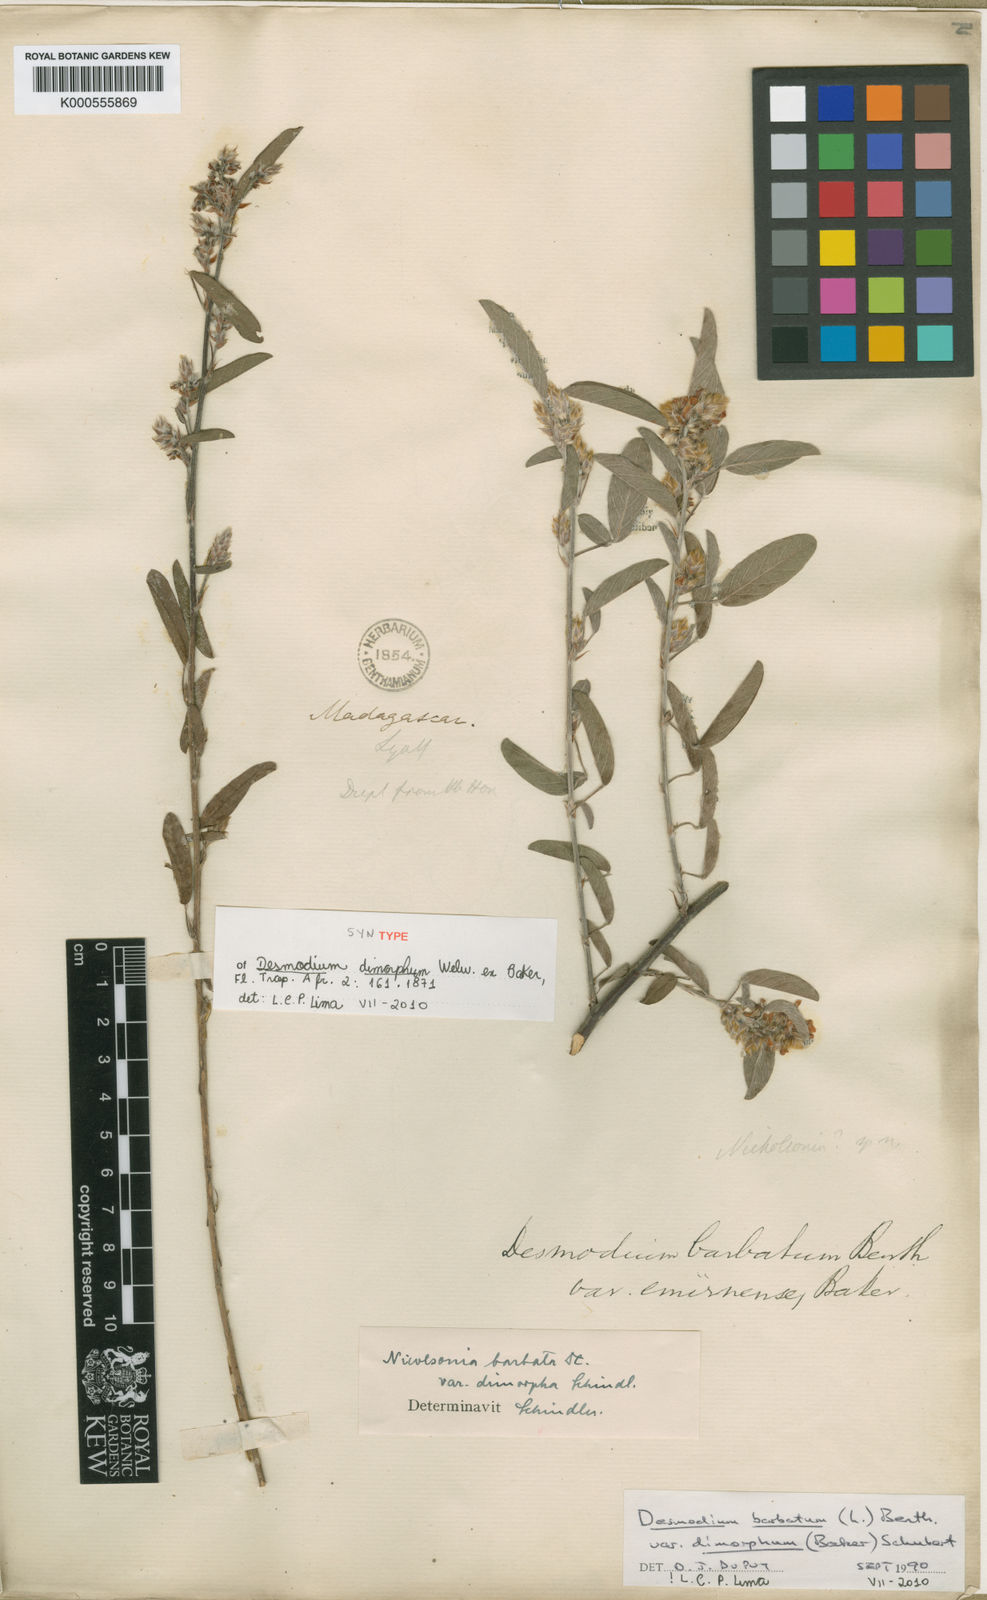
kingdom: Plantae
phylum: Tracheophyta
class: Magnoliopsida
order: Fabales
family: Fabaceae
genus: Grona
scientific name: Grona barbata
